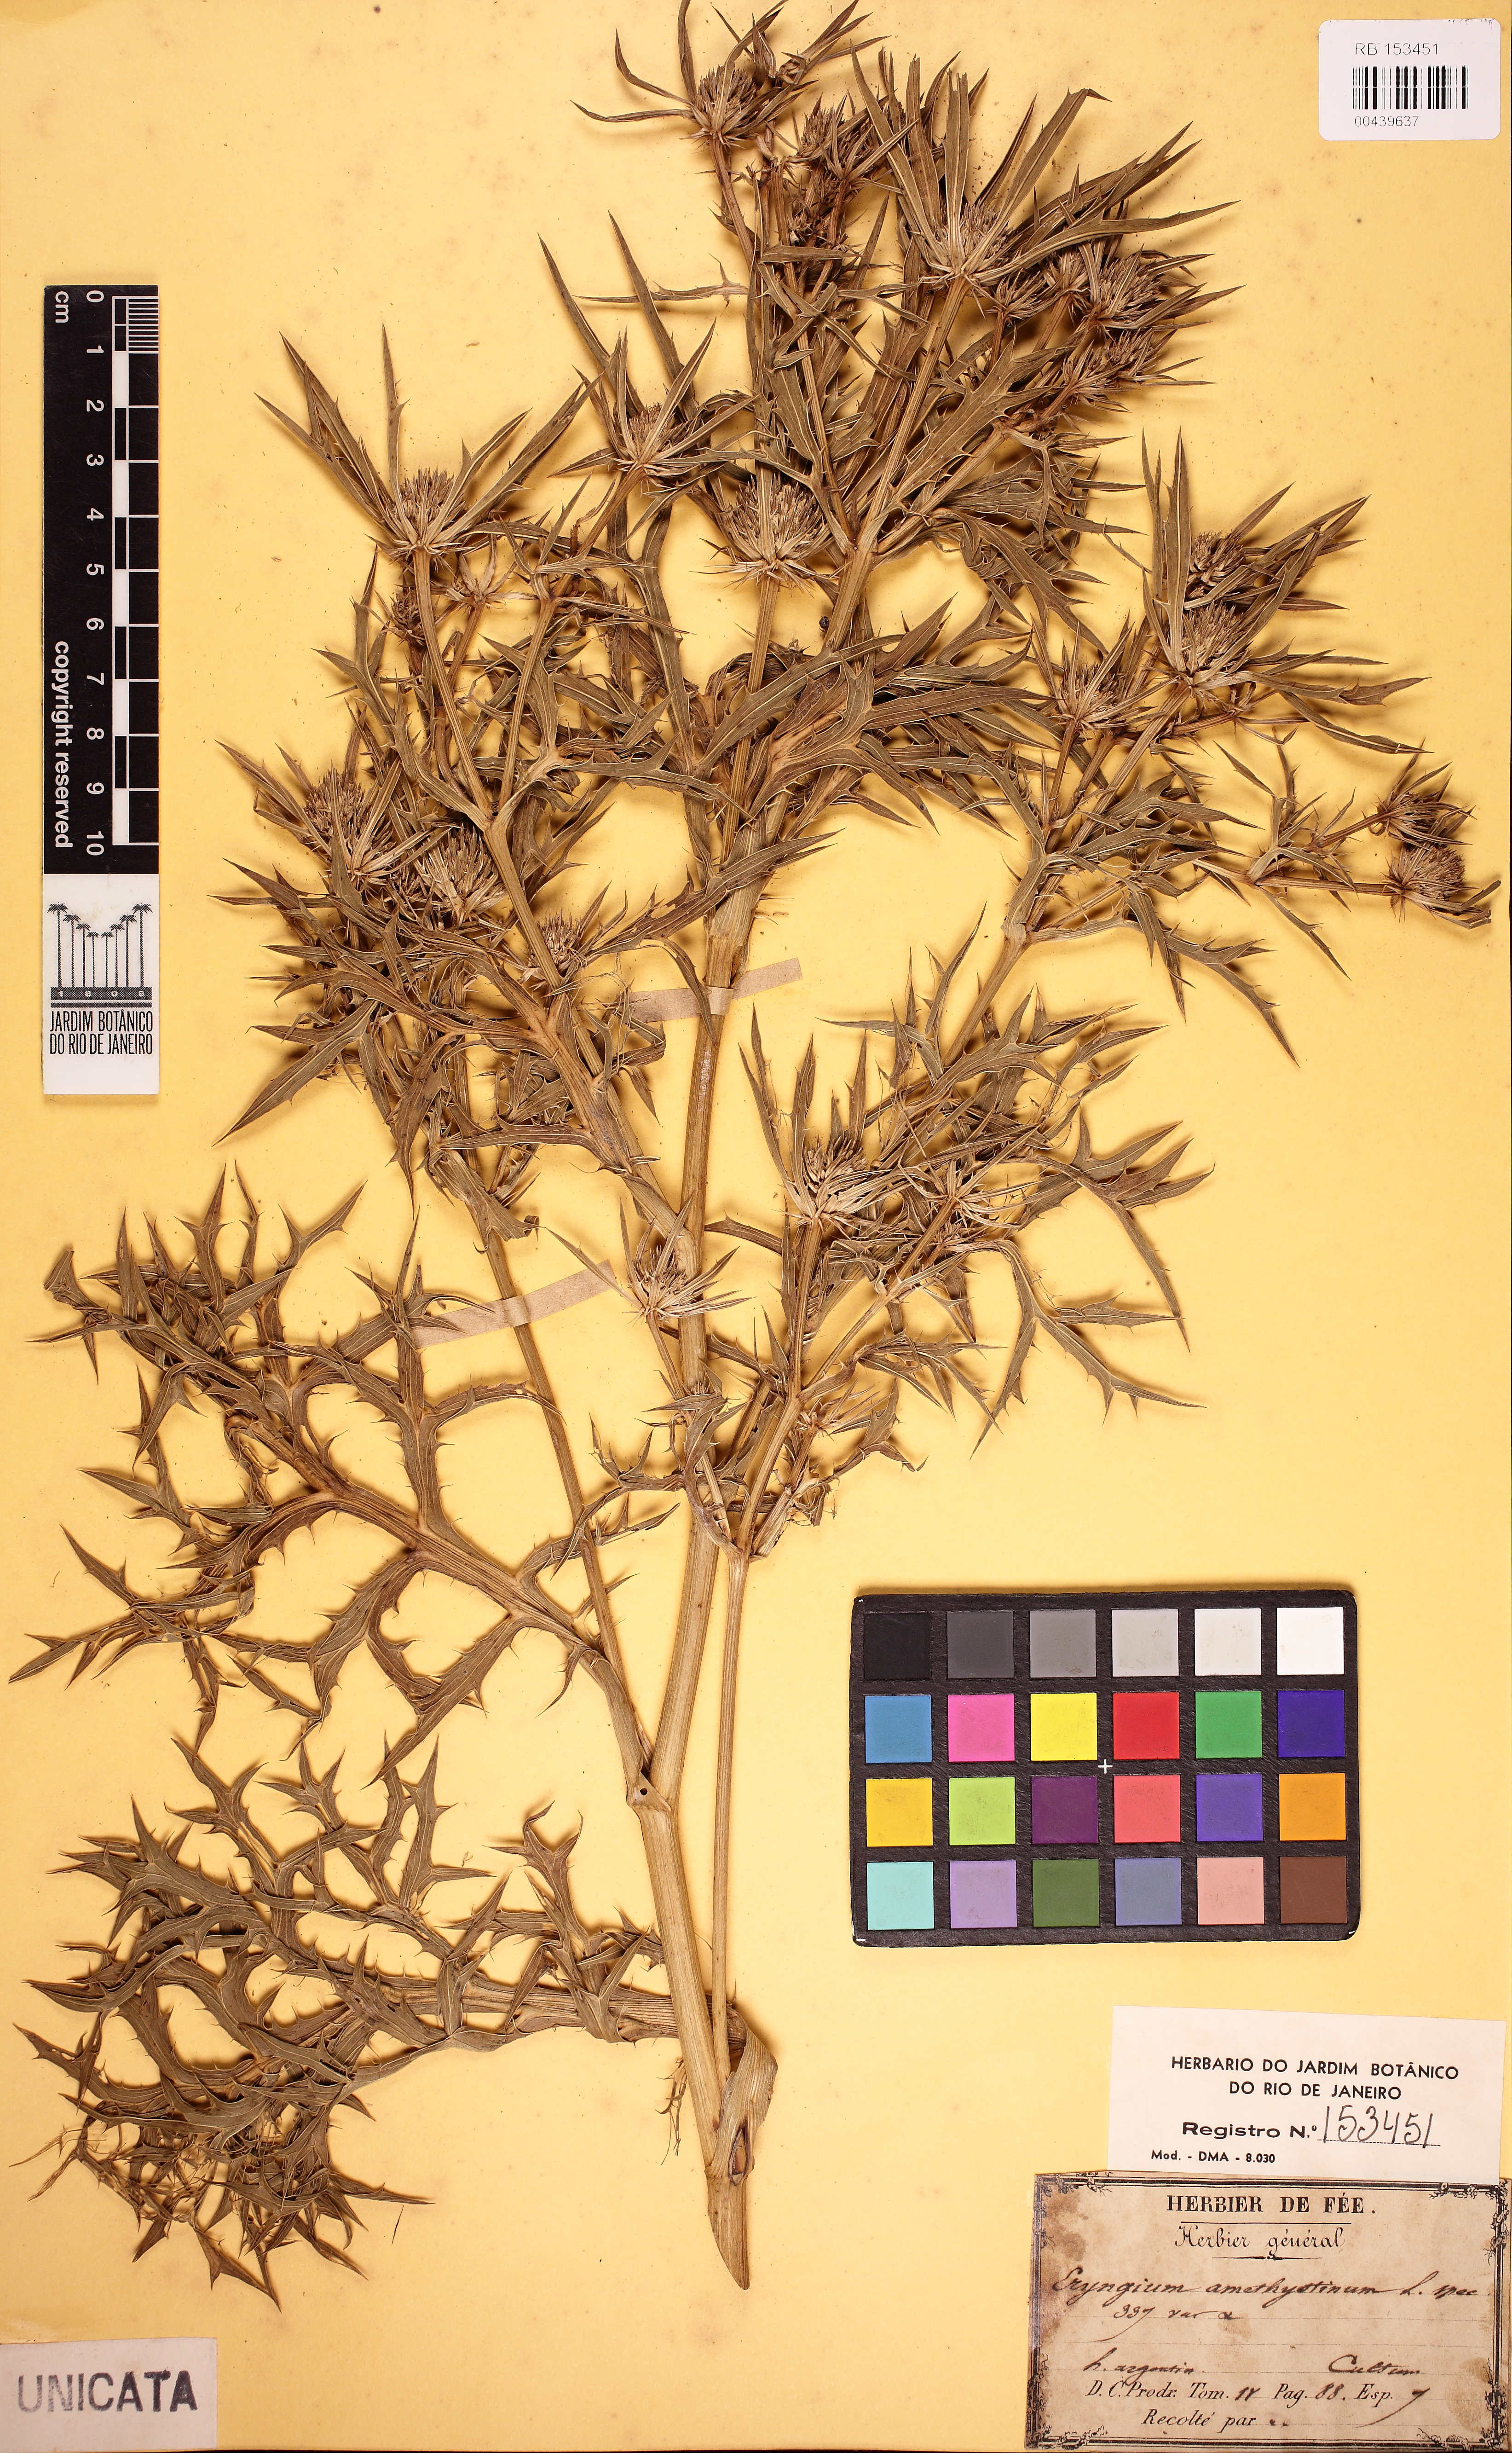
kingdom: Plantae
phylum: Tracheophyta
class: Magnoliopsida
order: Apiales
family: Apiaceae
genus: Eryngium
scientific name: Eryngium amethystinodes
